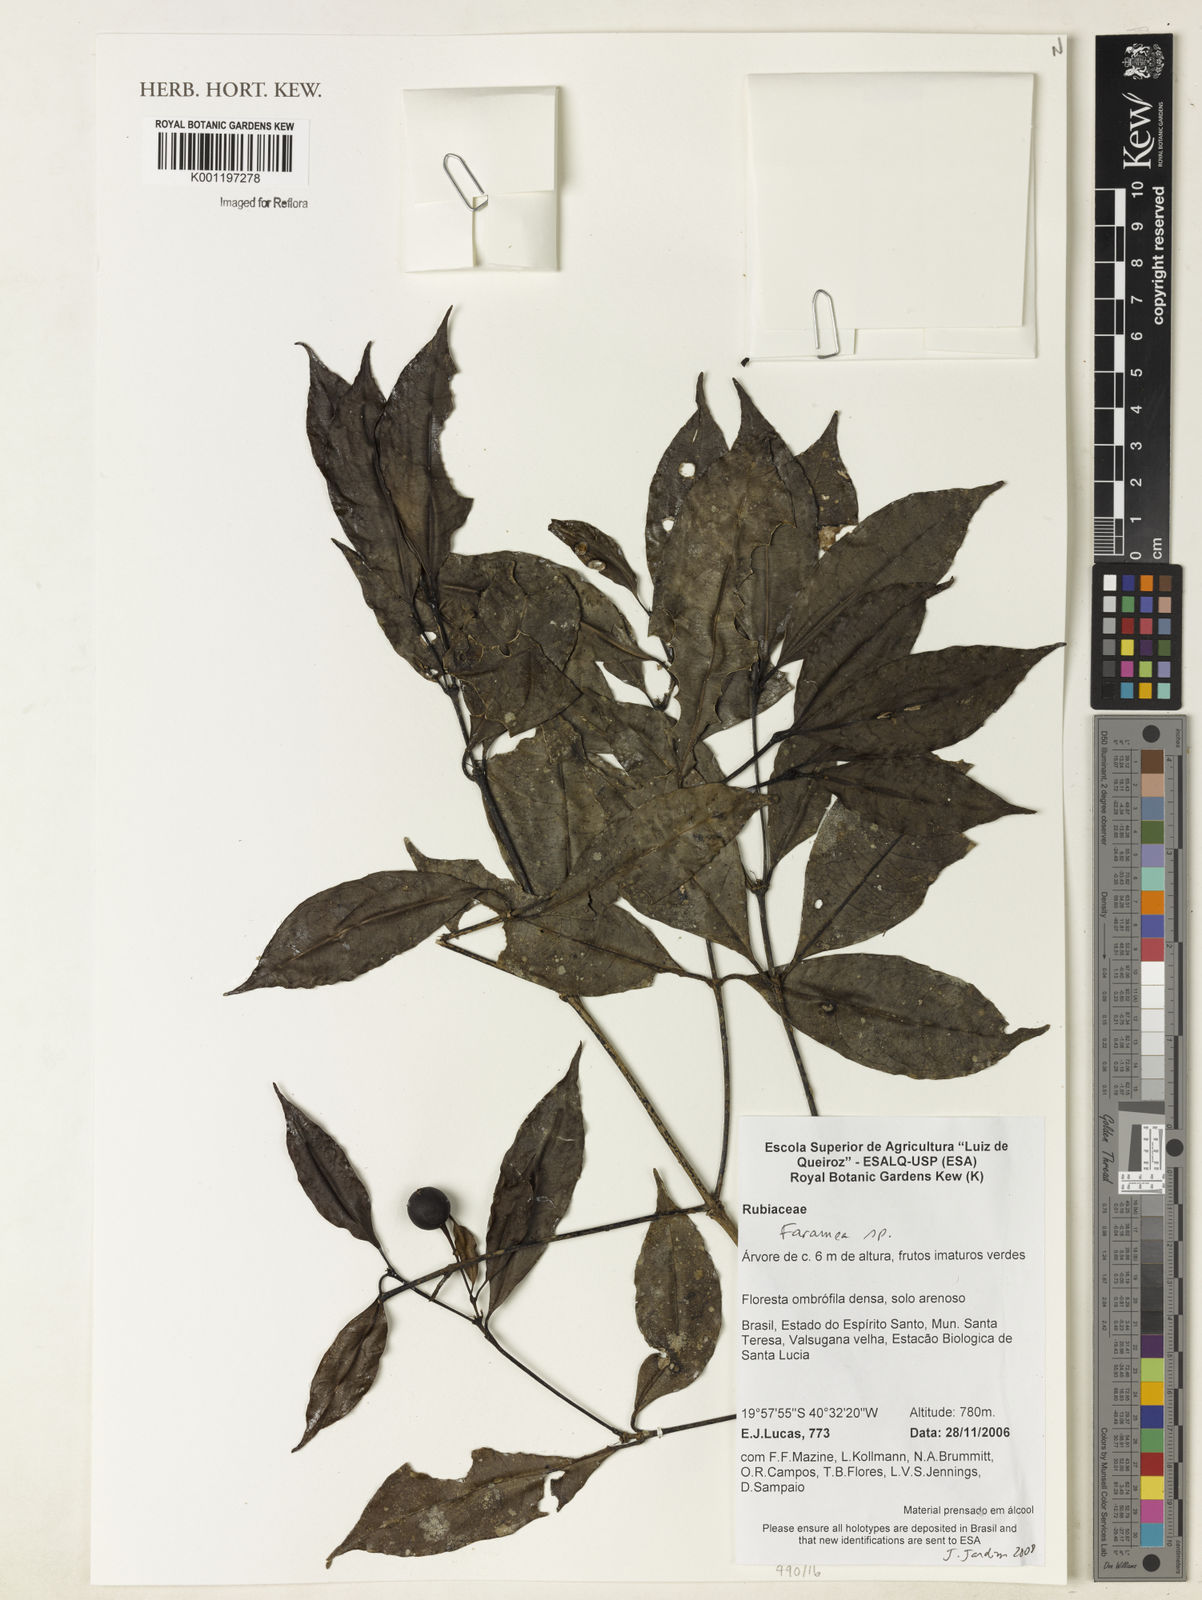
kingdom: Plantae
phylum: Tracheophyta
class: Magnoliopsida
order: Gentianales
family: Rubiaceae
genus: Faramea
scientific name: Faramea
